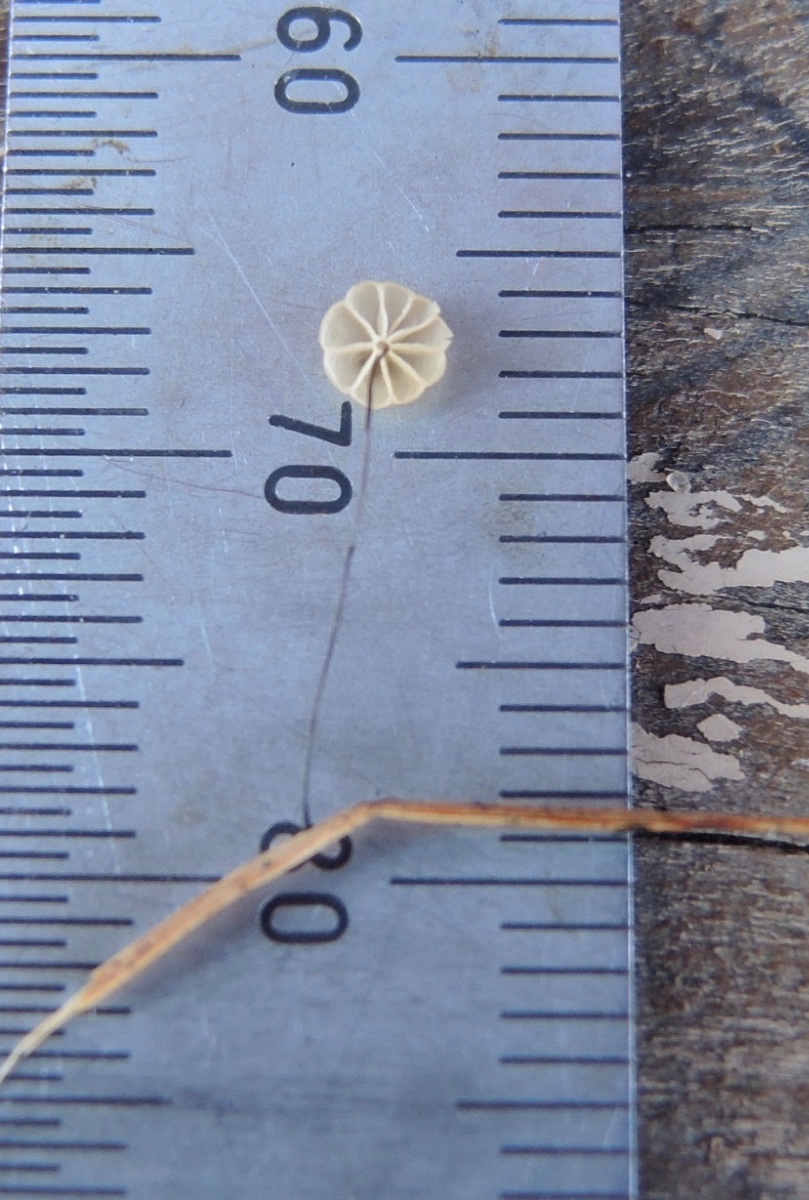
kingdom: Fungi
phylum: Basidiomycota
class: Agaricomycetes
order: Agaricales
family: Marasmiaceae
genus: Marasmius
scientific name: Marasmius limosus
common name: kær-bruskhat
